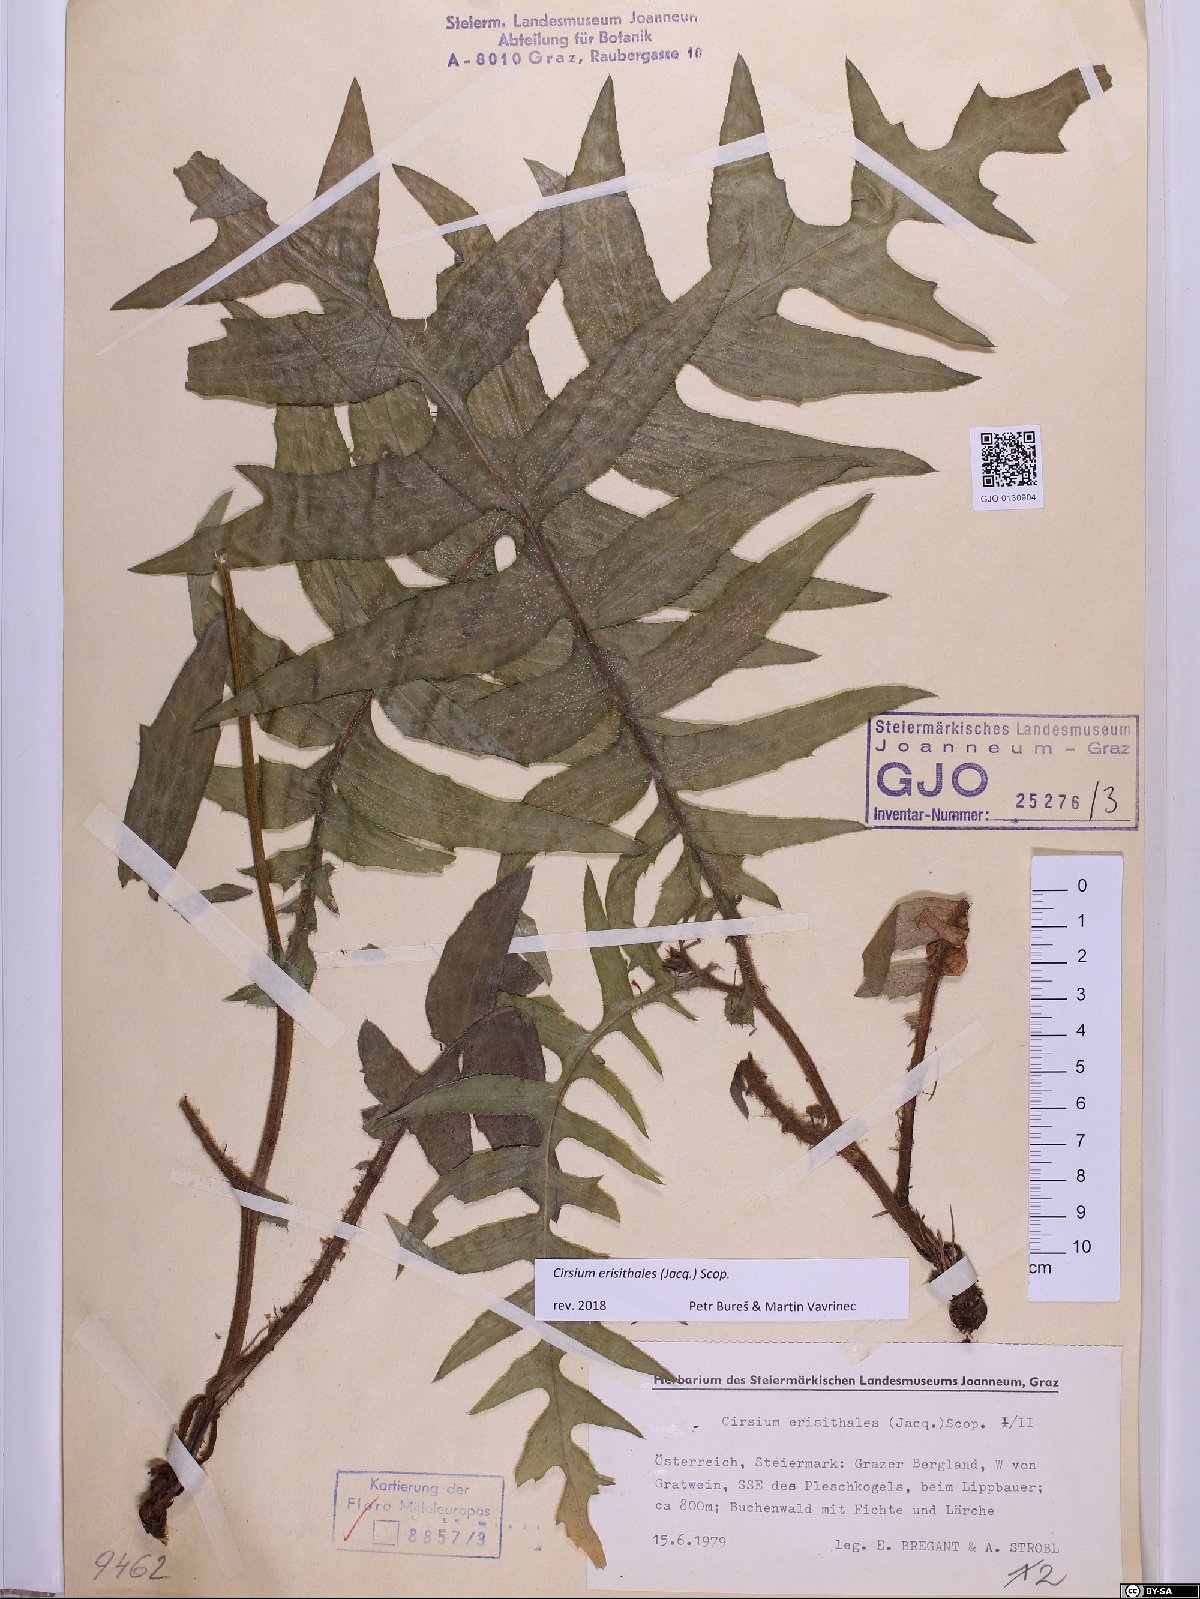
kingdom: Plantae
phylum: Tracheophyta
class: Magnoliopsida
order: Asterales
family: Asteraceae
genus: Cirsium
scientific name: Cirsium erisithales
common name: Yellow thistle
